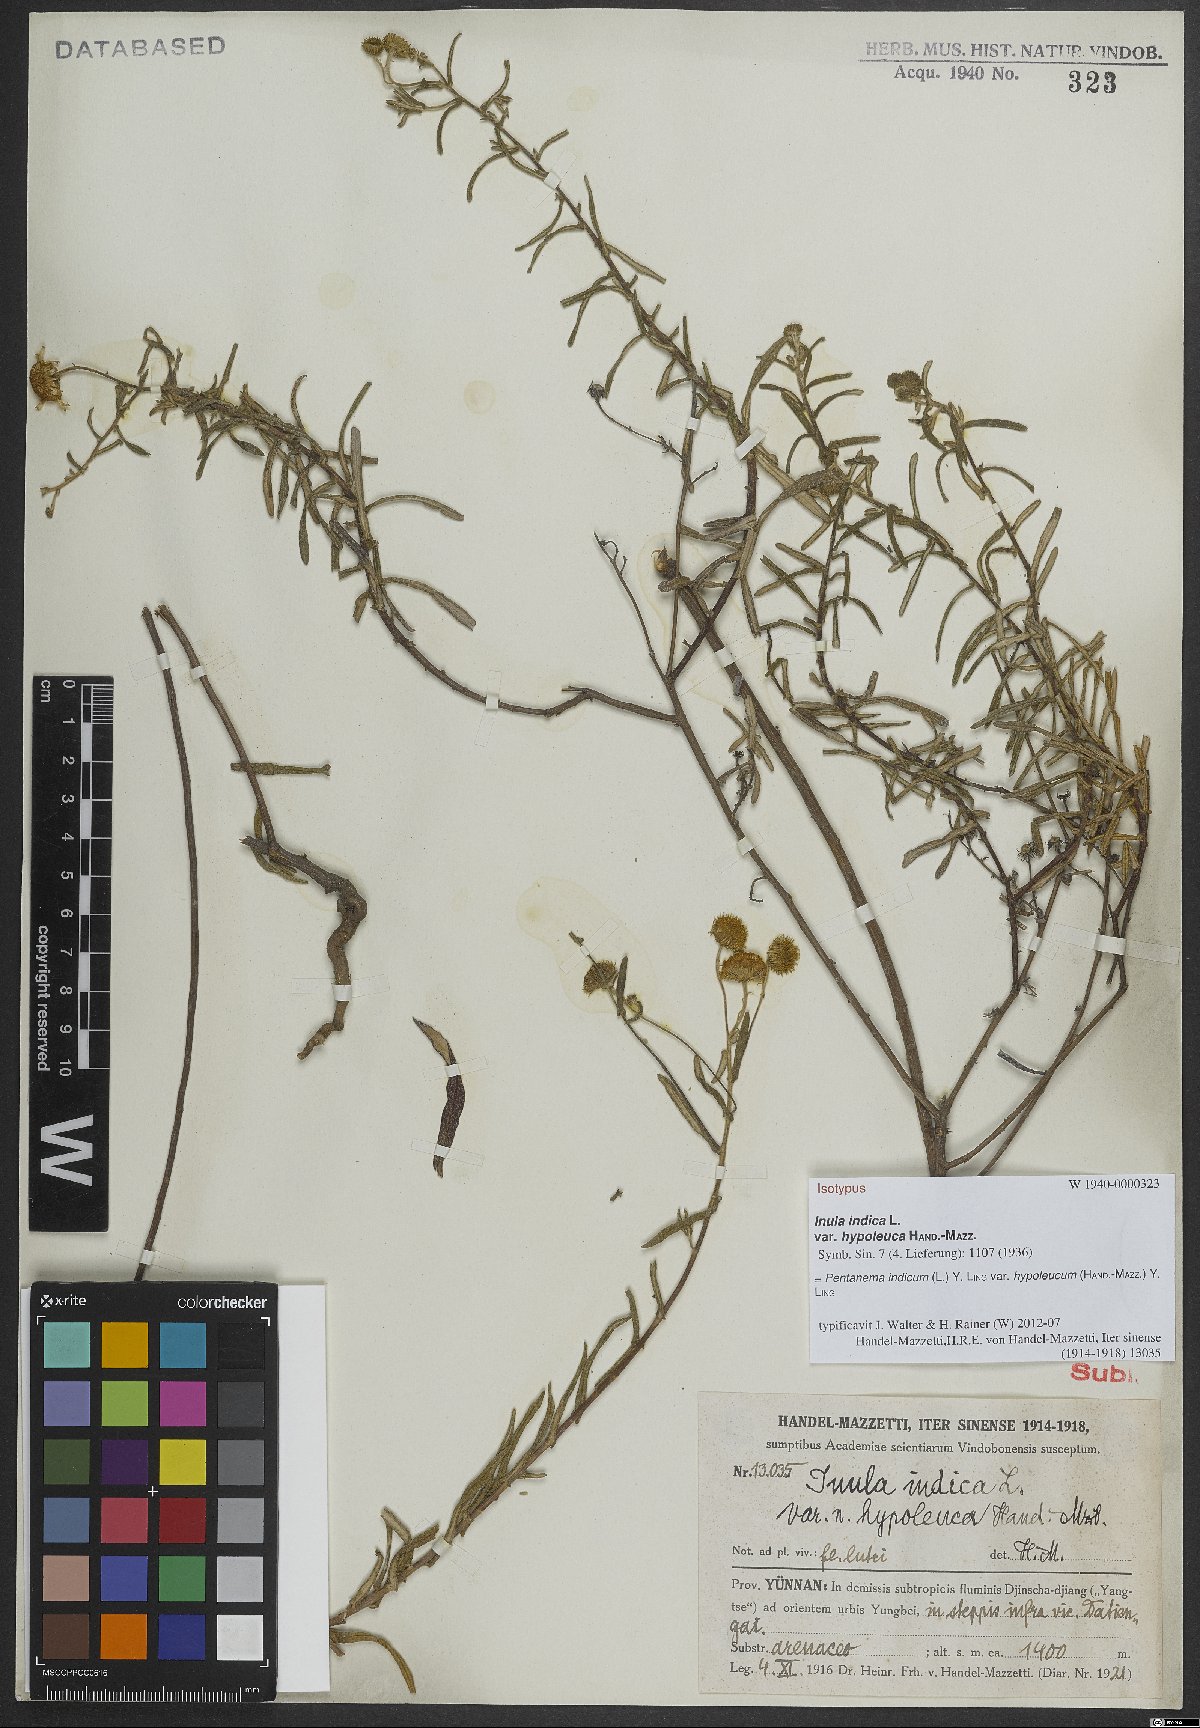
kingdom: Plantae
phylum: Tracheophyta
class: Magnoliopsida
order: Asterales
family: Asteraceae
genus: Vicoa
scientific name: Vicoa indica
